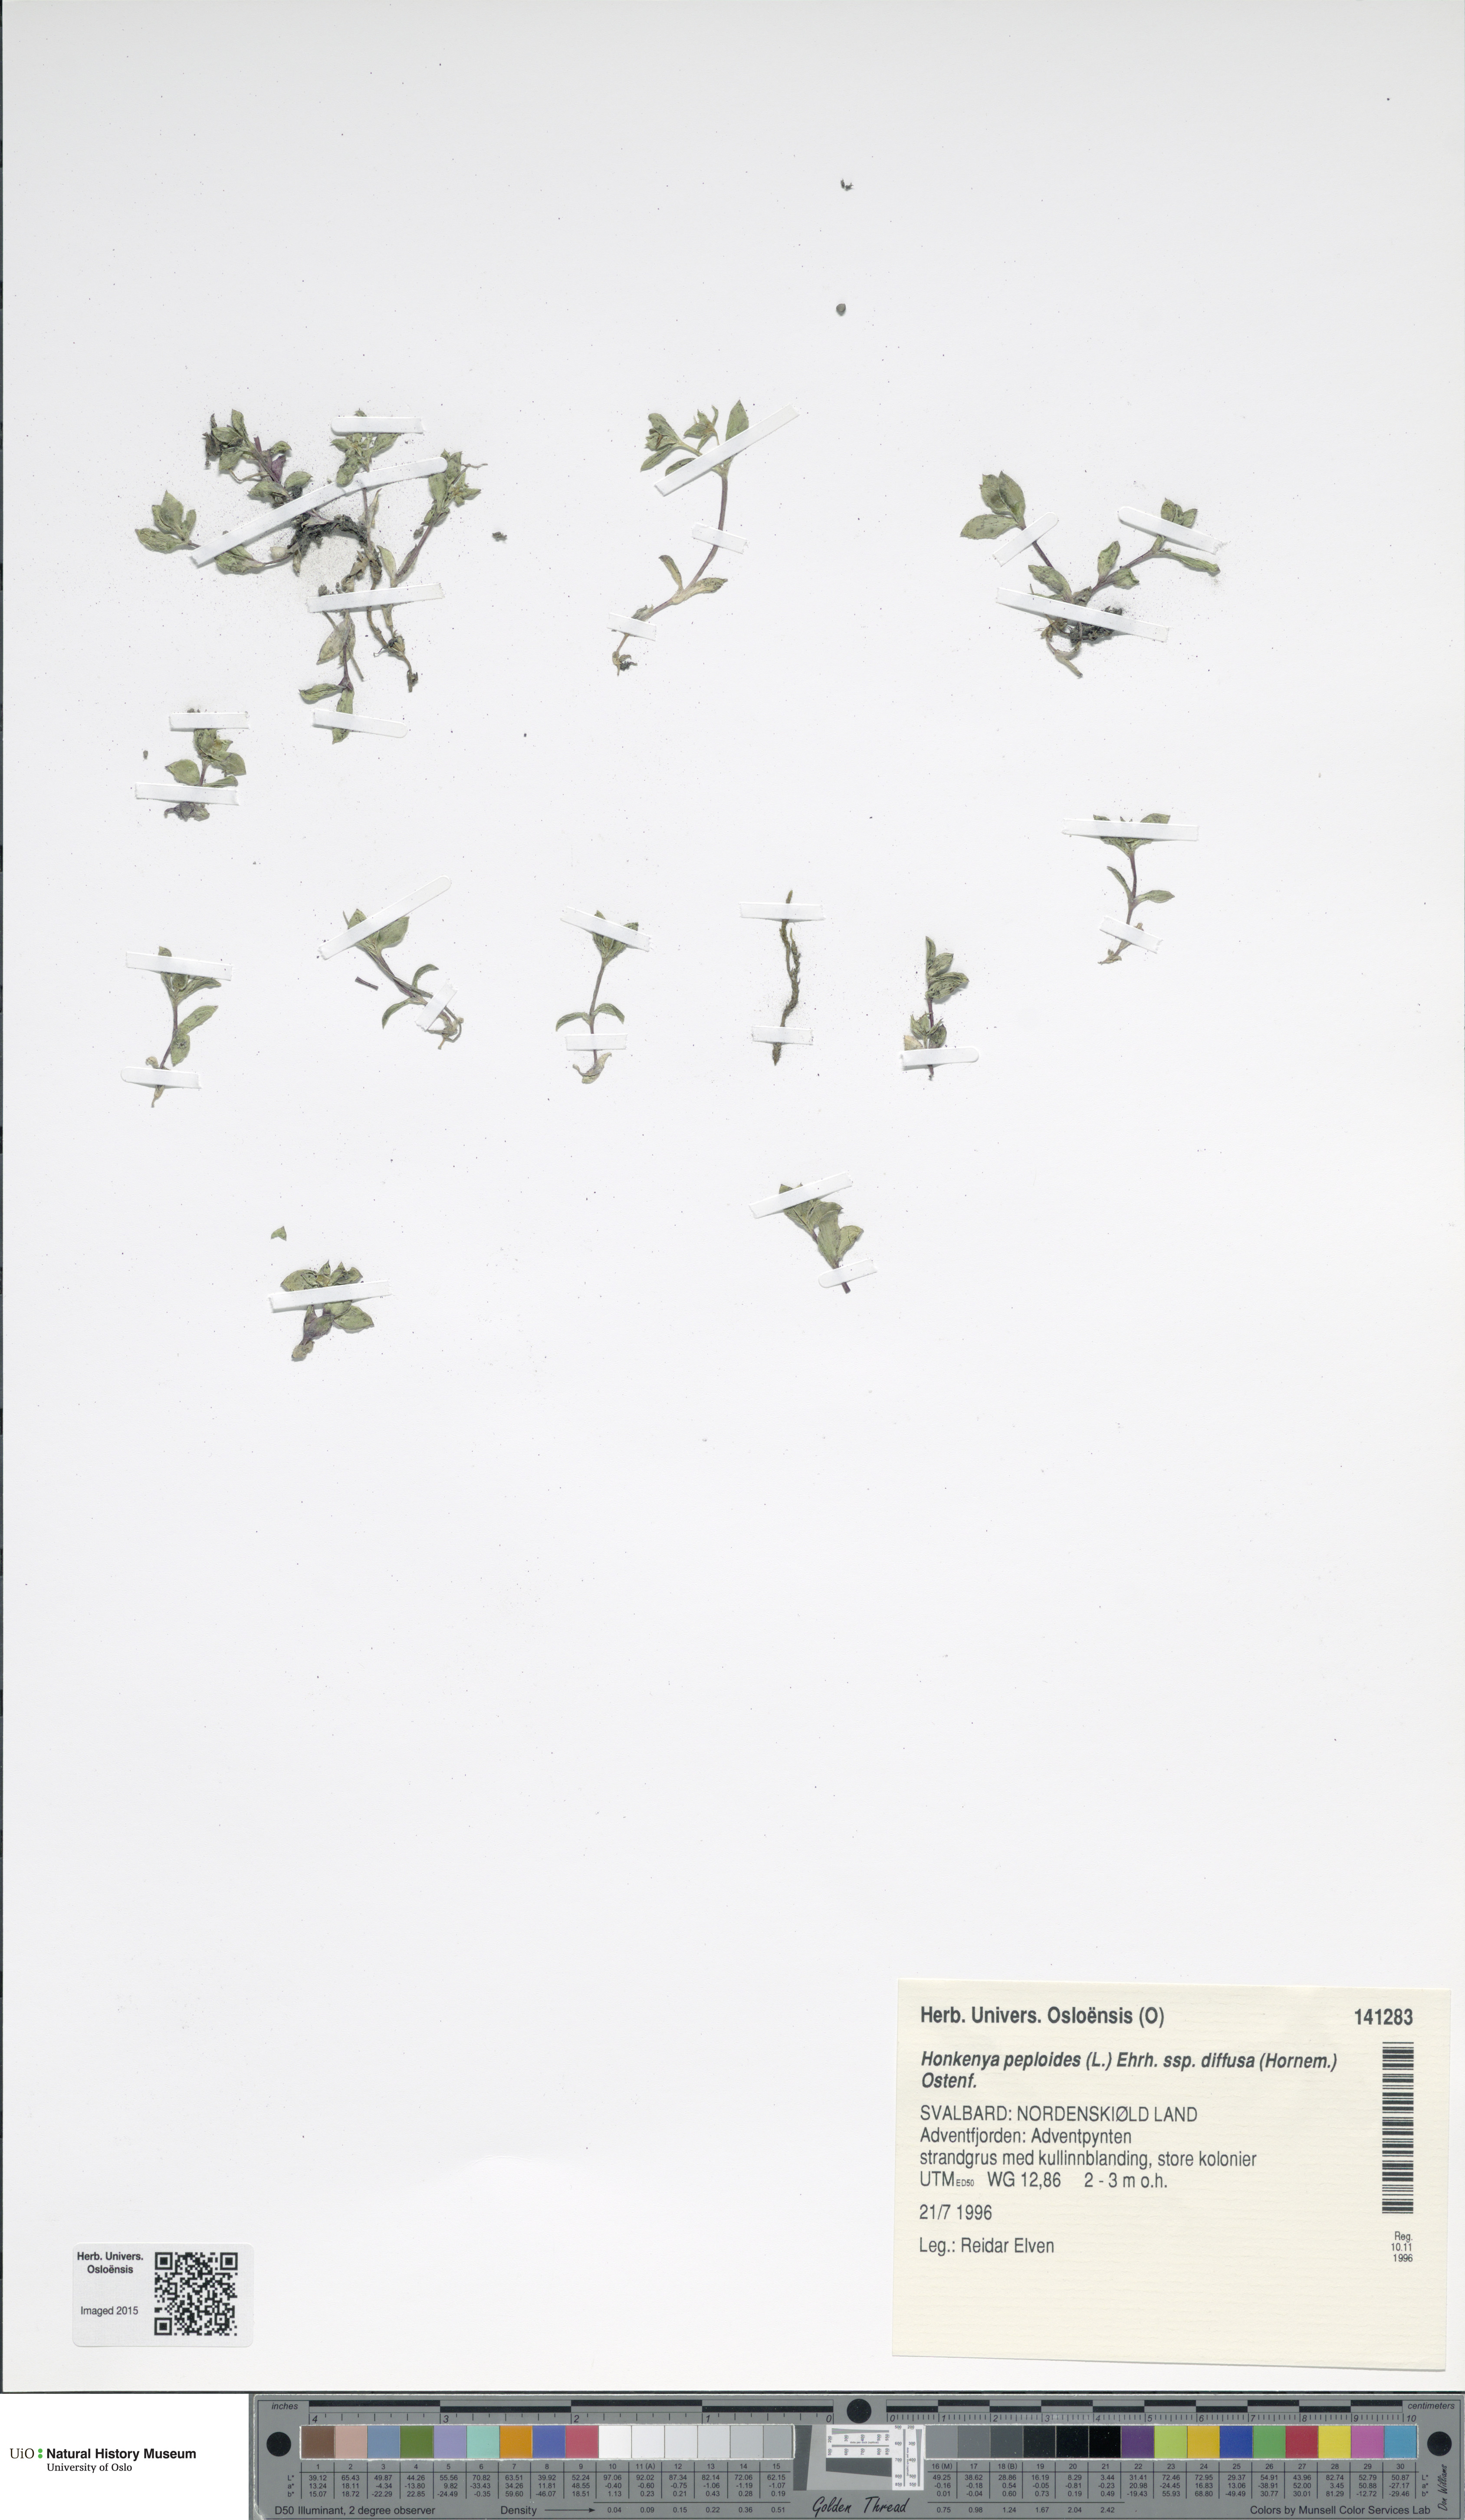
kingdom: Plantae
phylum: Tracheophyta
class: Magnoliopsida
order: Caryophyllales
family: Caryophyllaceae
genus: Honckenya
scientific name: Honckenya peploides
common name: Sea sandwort
